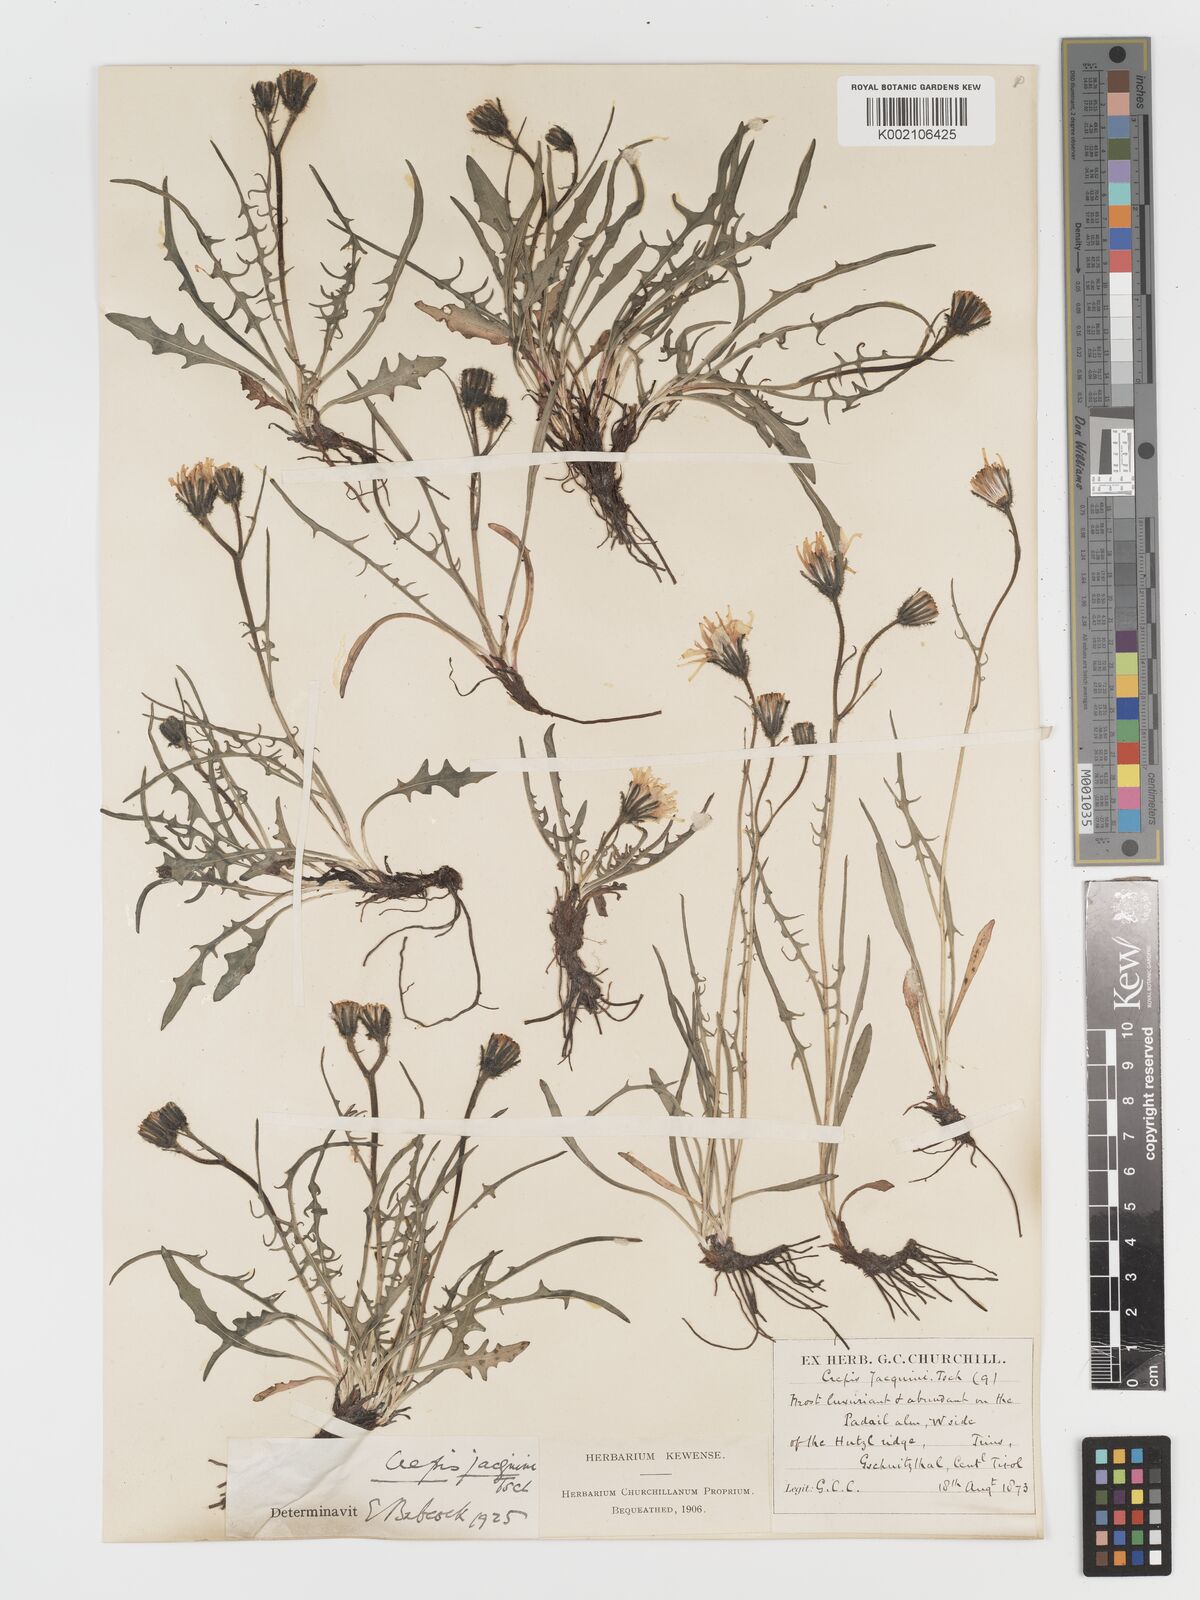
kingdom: Plantae
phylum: Tracheophyta
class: Magnoliopsida
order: Asterales
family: Asteraceae
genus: Crepis
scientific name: Crepis jacquinii
